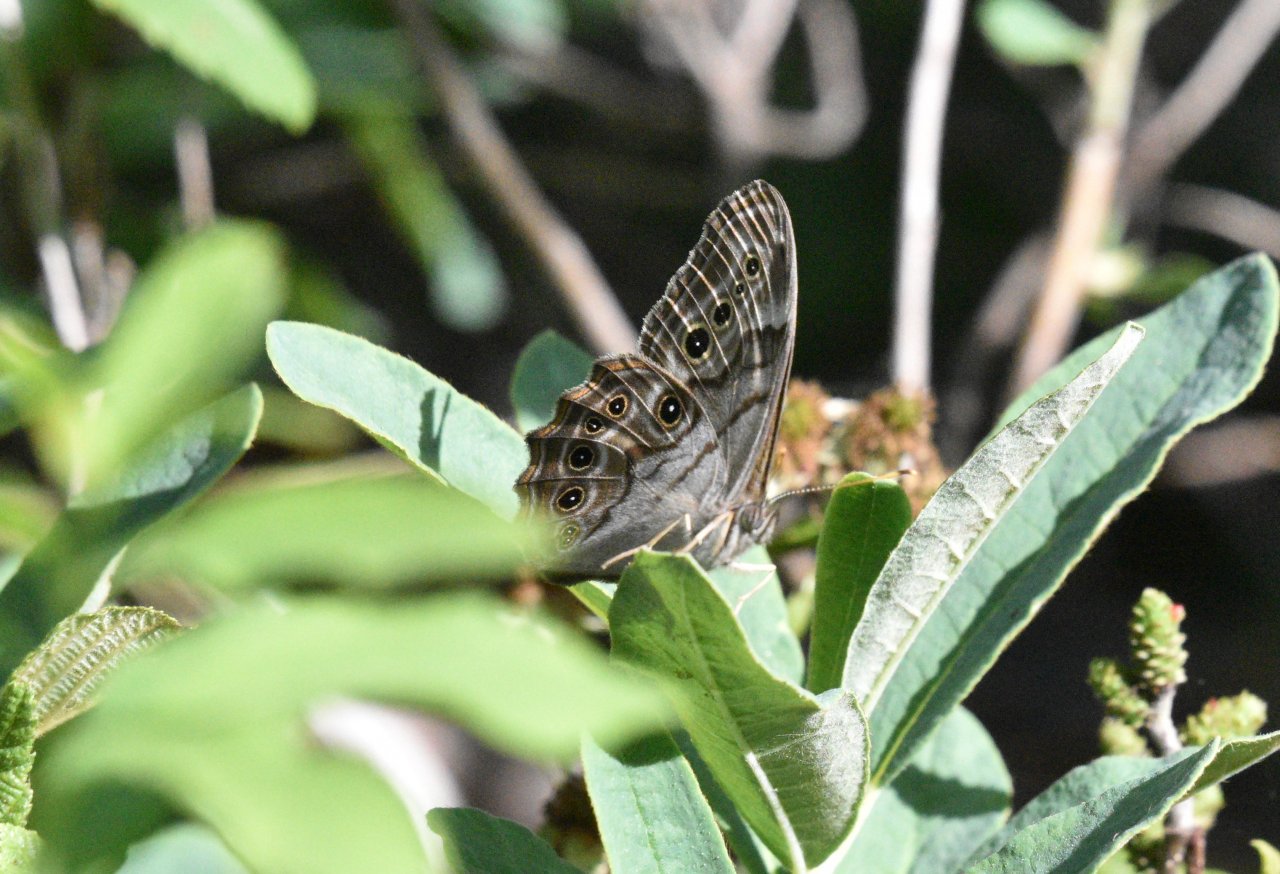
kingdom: Animalia
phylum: Arthropoda
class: Insecta
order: Lepidoptera
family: Nymphalidae
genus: Lethe
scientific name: Lethe anthedon
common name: Northern Pearly-Eye
